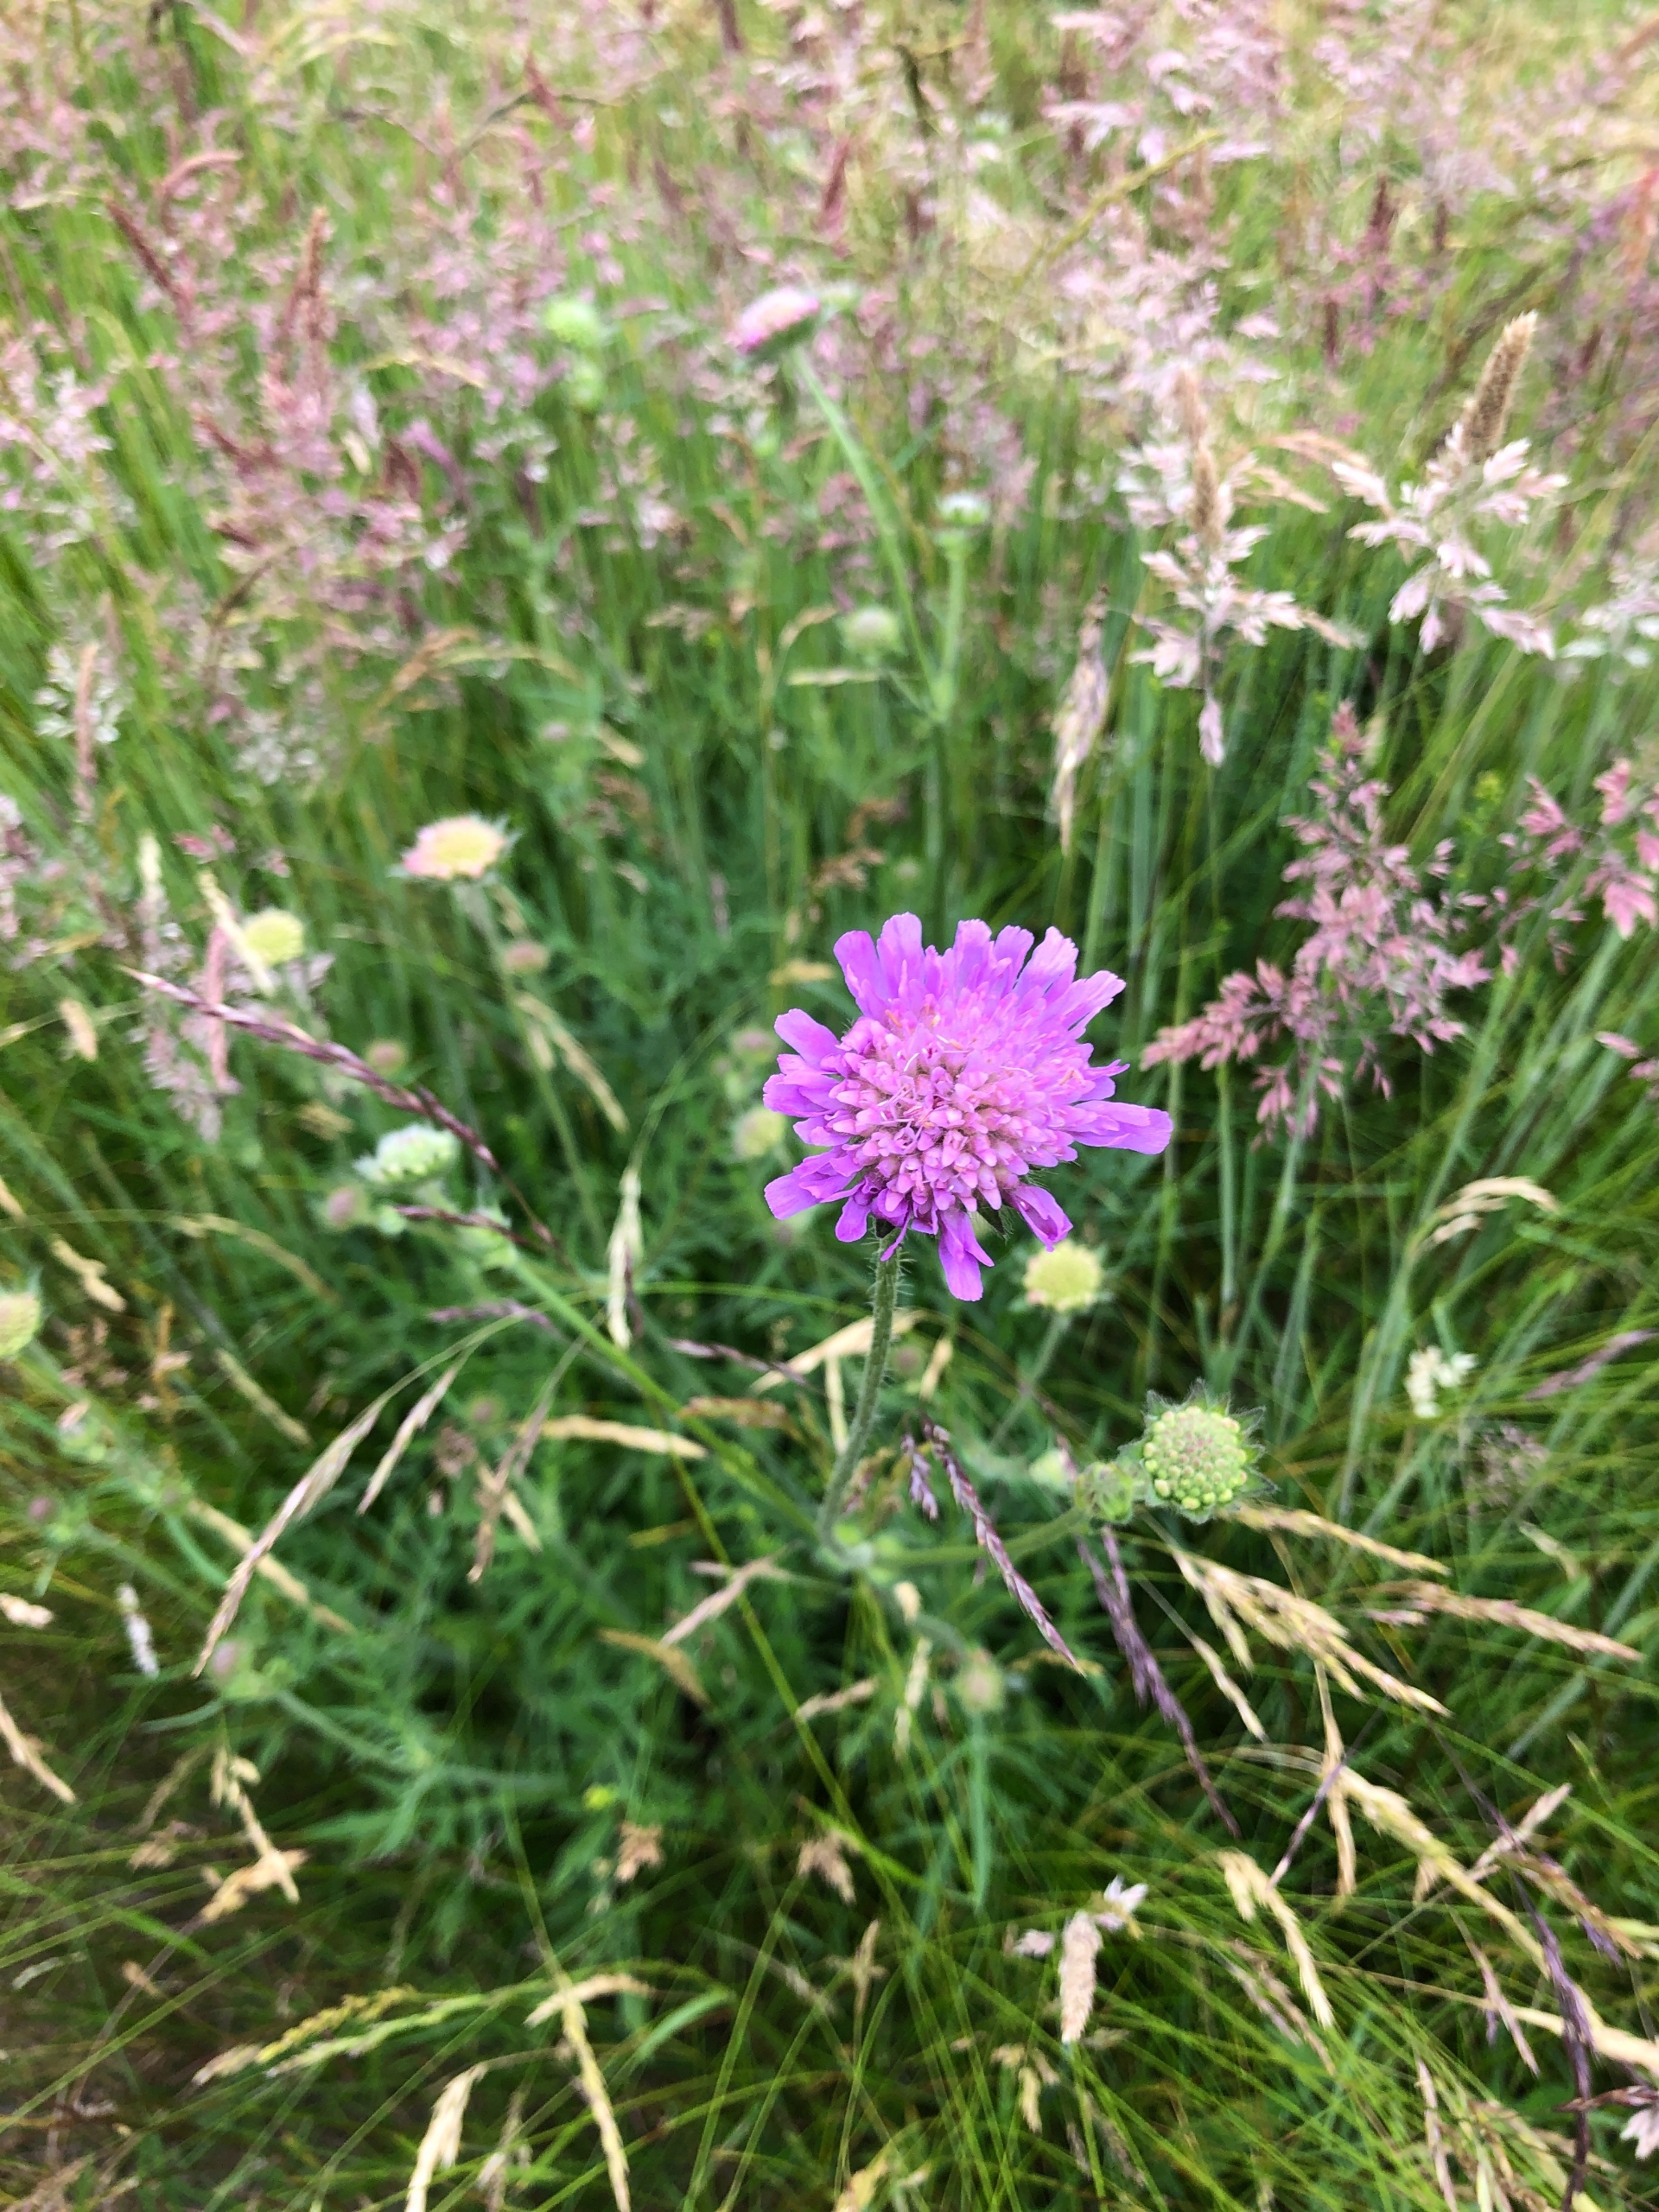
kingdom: Plantae
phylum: Tracheophyta
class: Magnoliopsida
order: Dipsacales
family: Caprifoliaceae
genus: Knautia
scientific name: Knautia arvensis
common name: Blåhat
